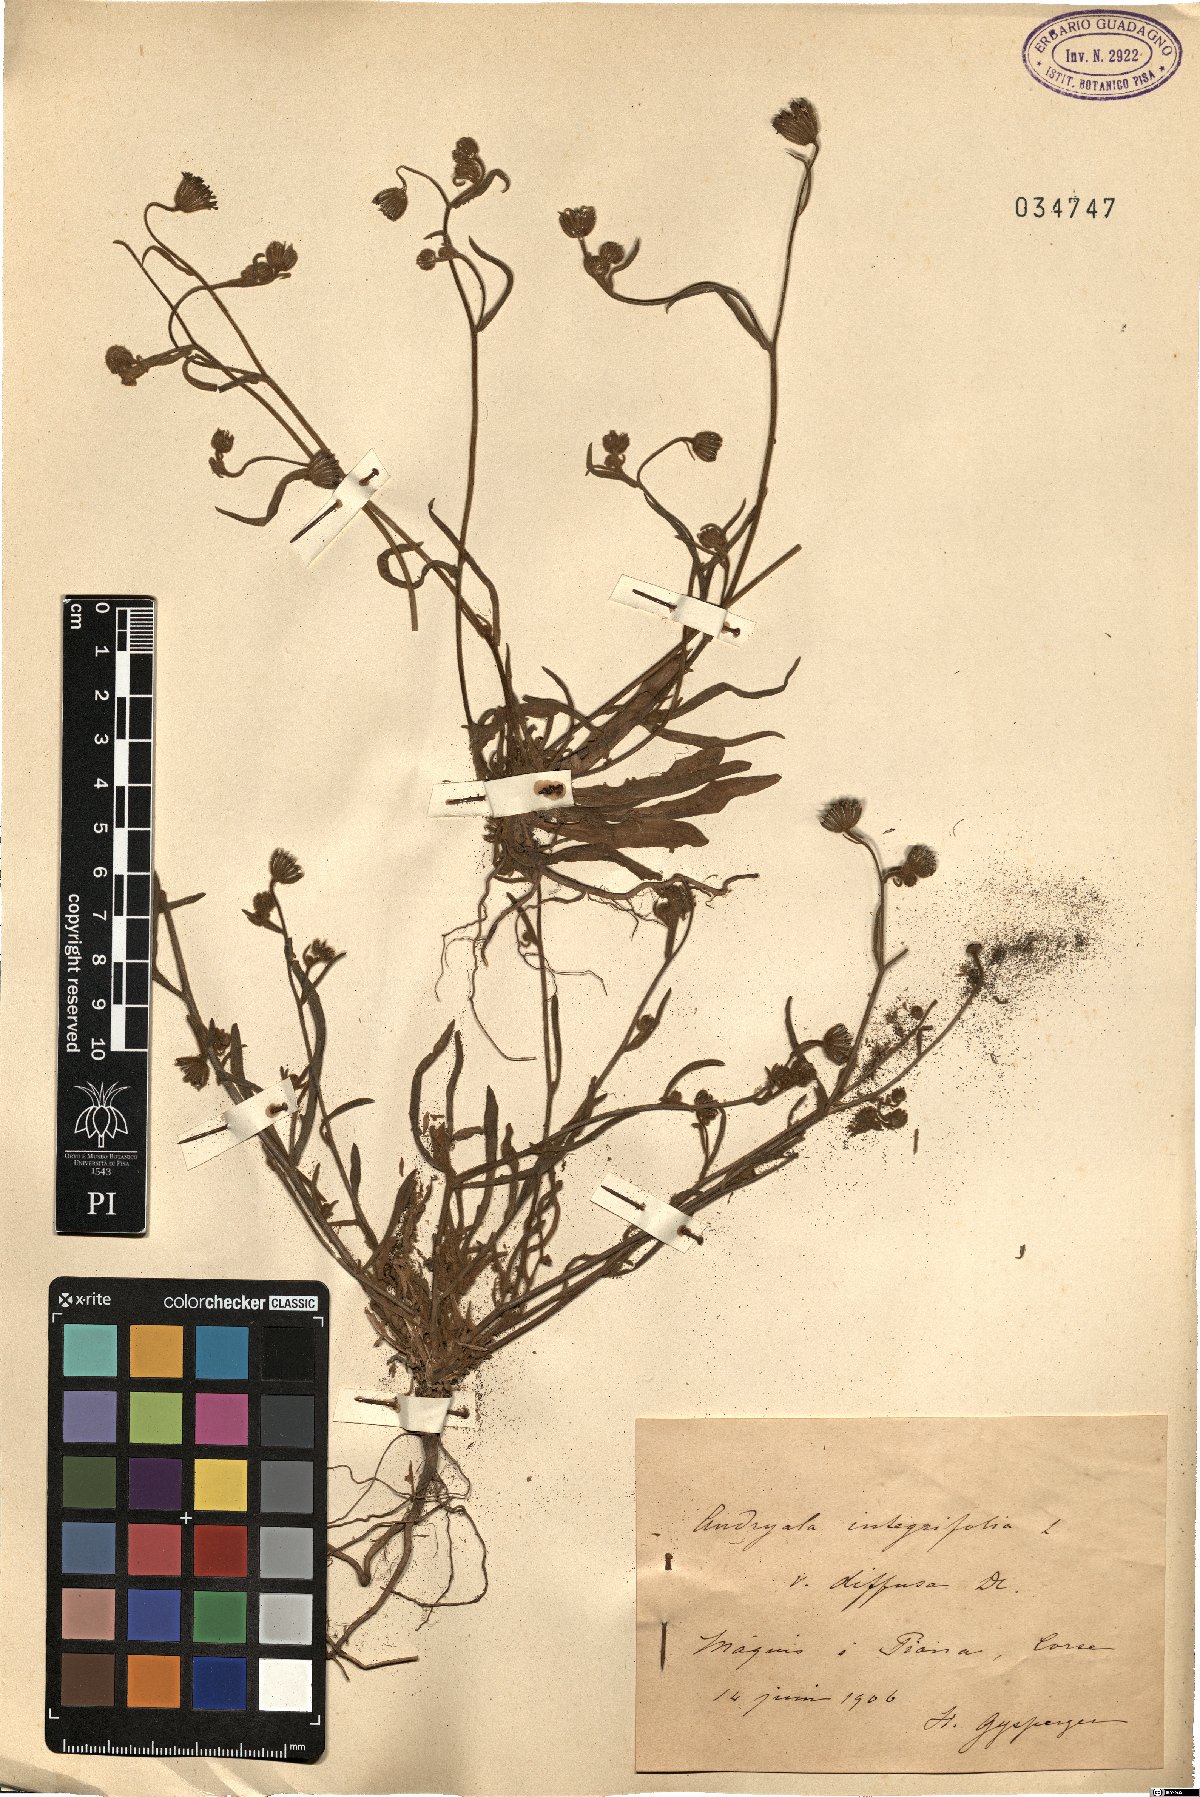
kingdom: Plantae
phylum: Tracheophyta
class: Magnoliopsida
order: Asterales
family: Asteraceae
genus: Hieracium
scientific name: Hieracium racemosum
